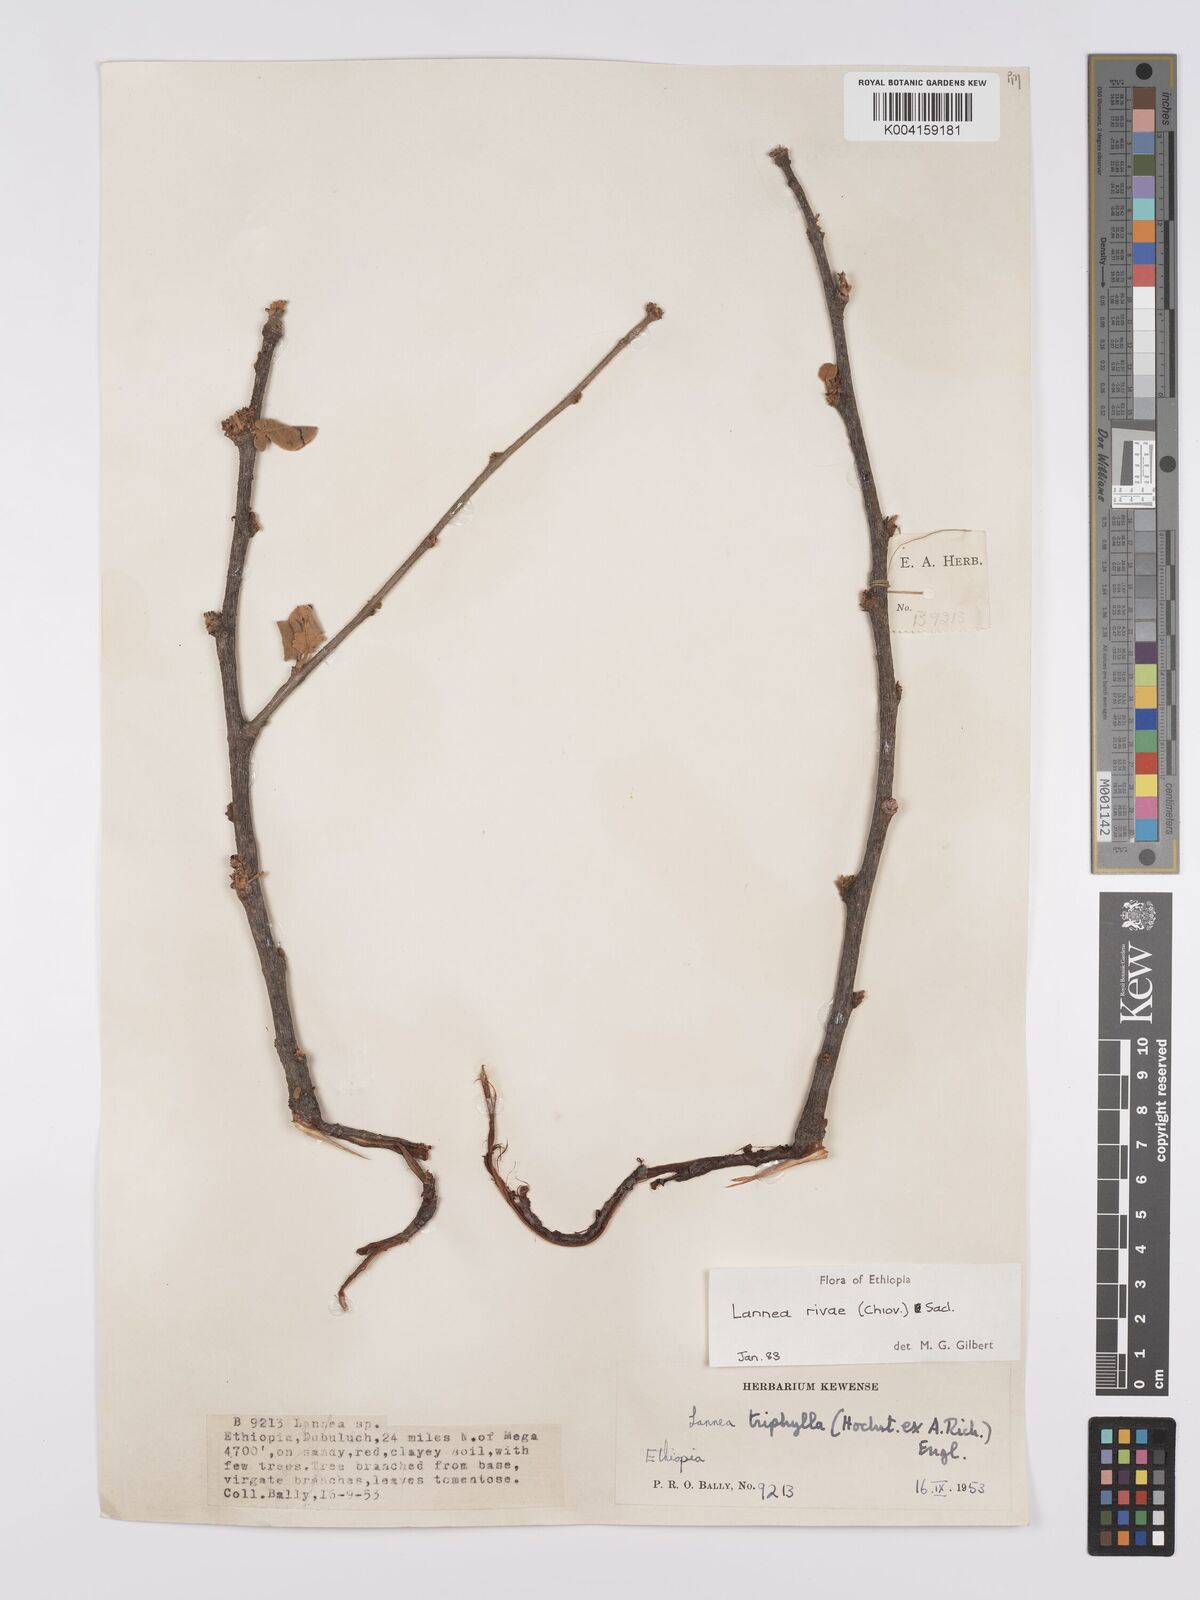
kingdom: Plantae
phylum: Tracheophyta
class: Magnoliopsida
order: Sapindales
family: Anacardiaceae
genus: Lannea
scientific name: Lannea rivae
